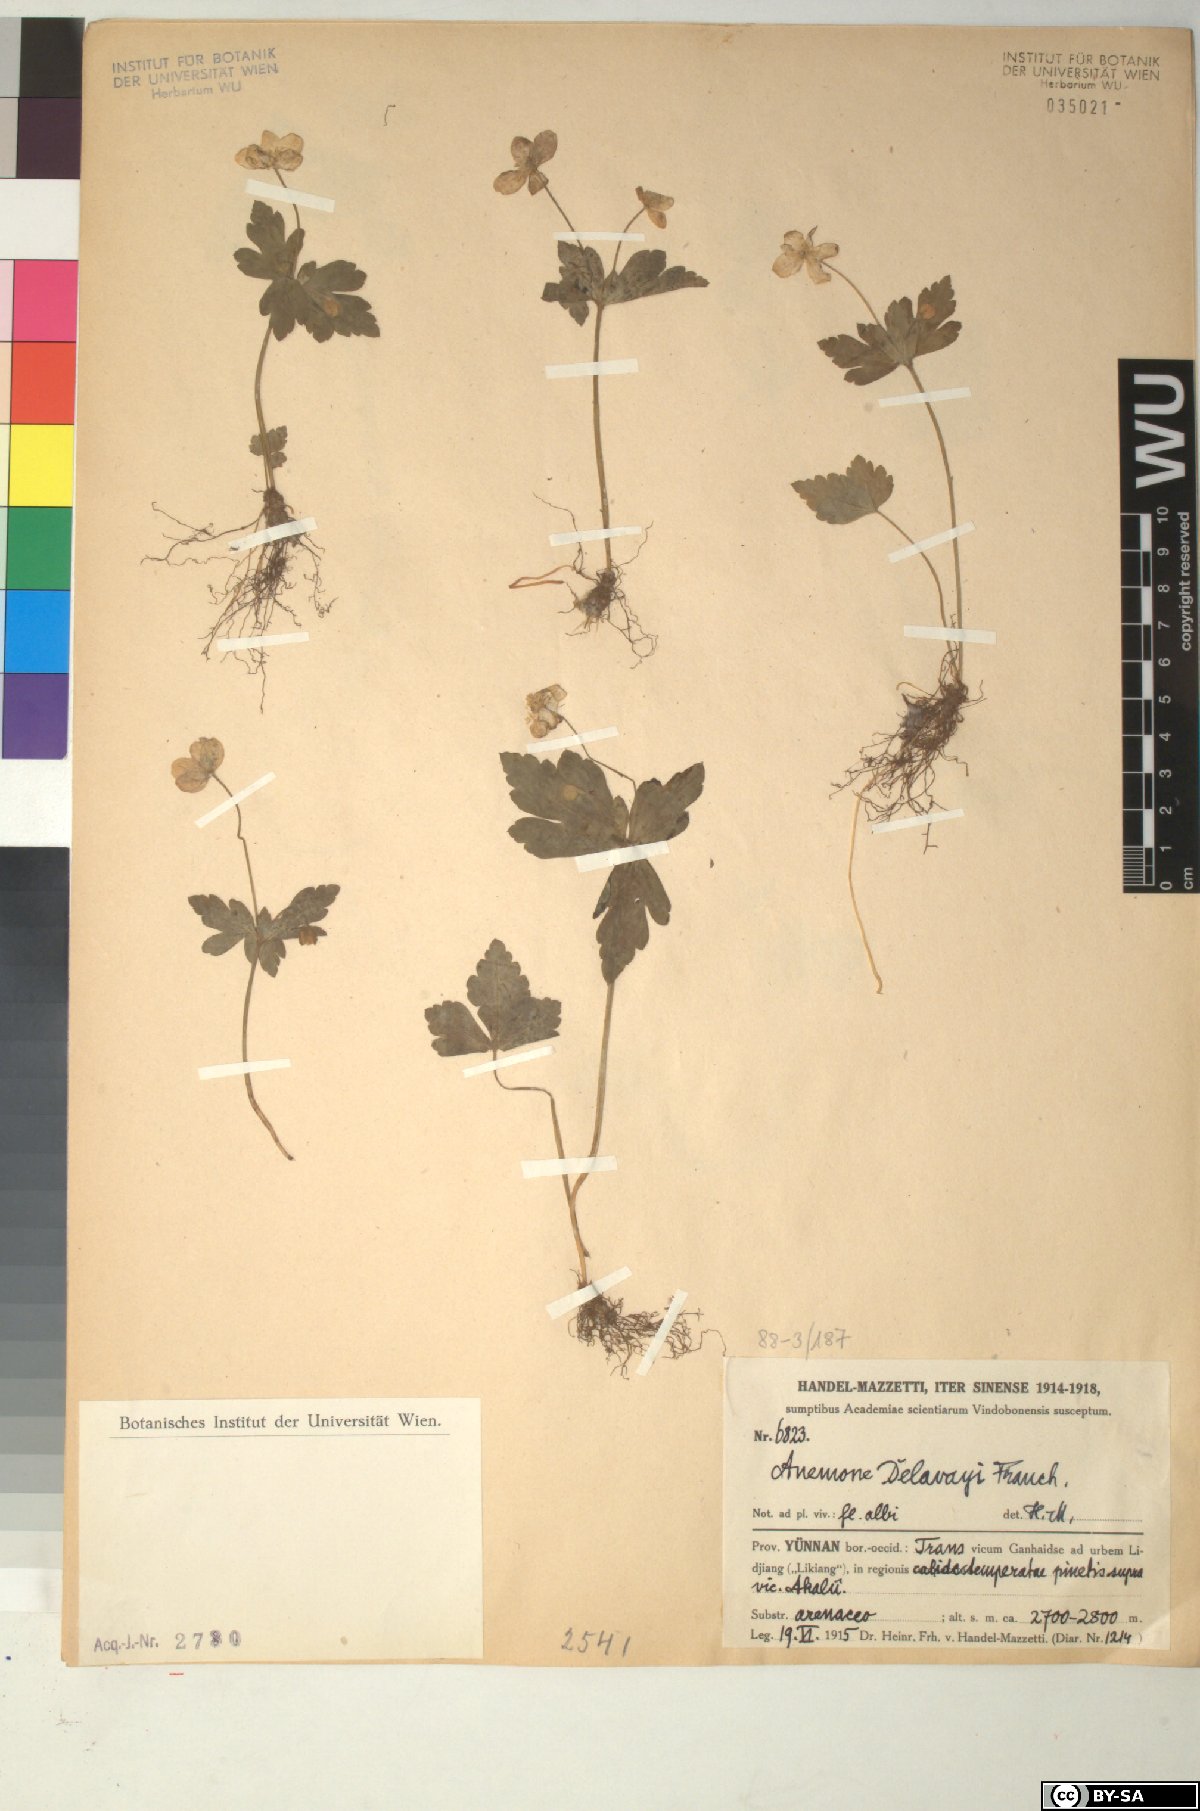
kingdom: Plantae
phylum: Tracheophyta
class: Magnoliopsida
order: Ranunculales
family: Ranunculaceae
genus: Anemone
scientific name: Anemone delavayi
